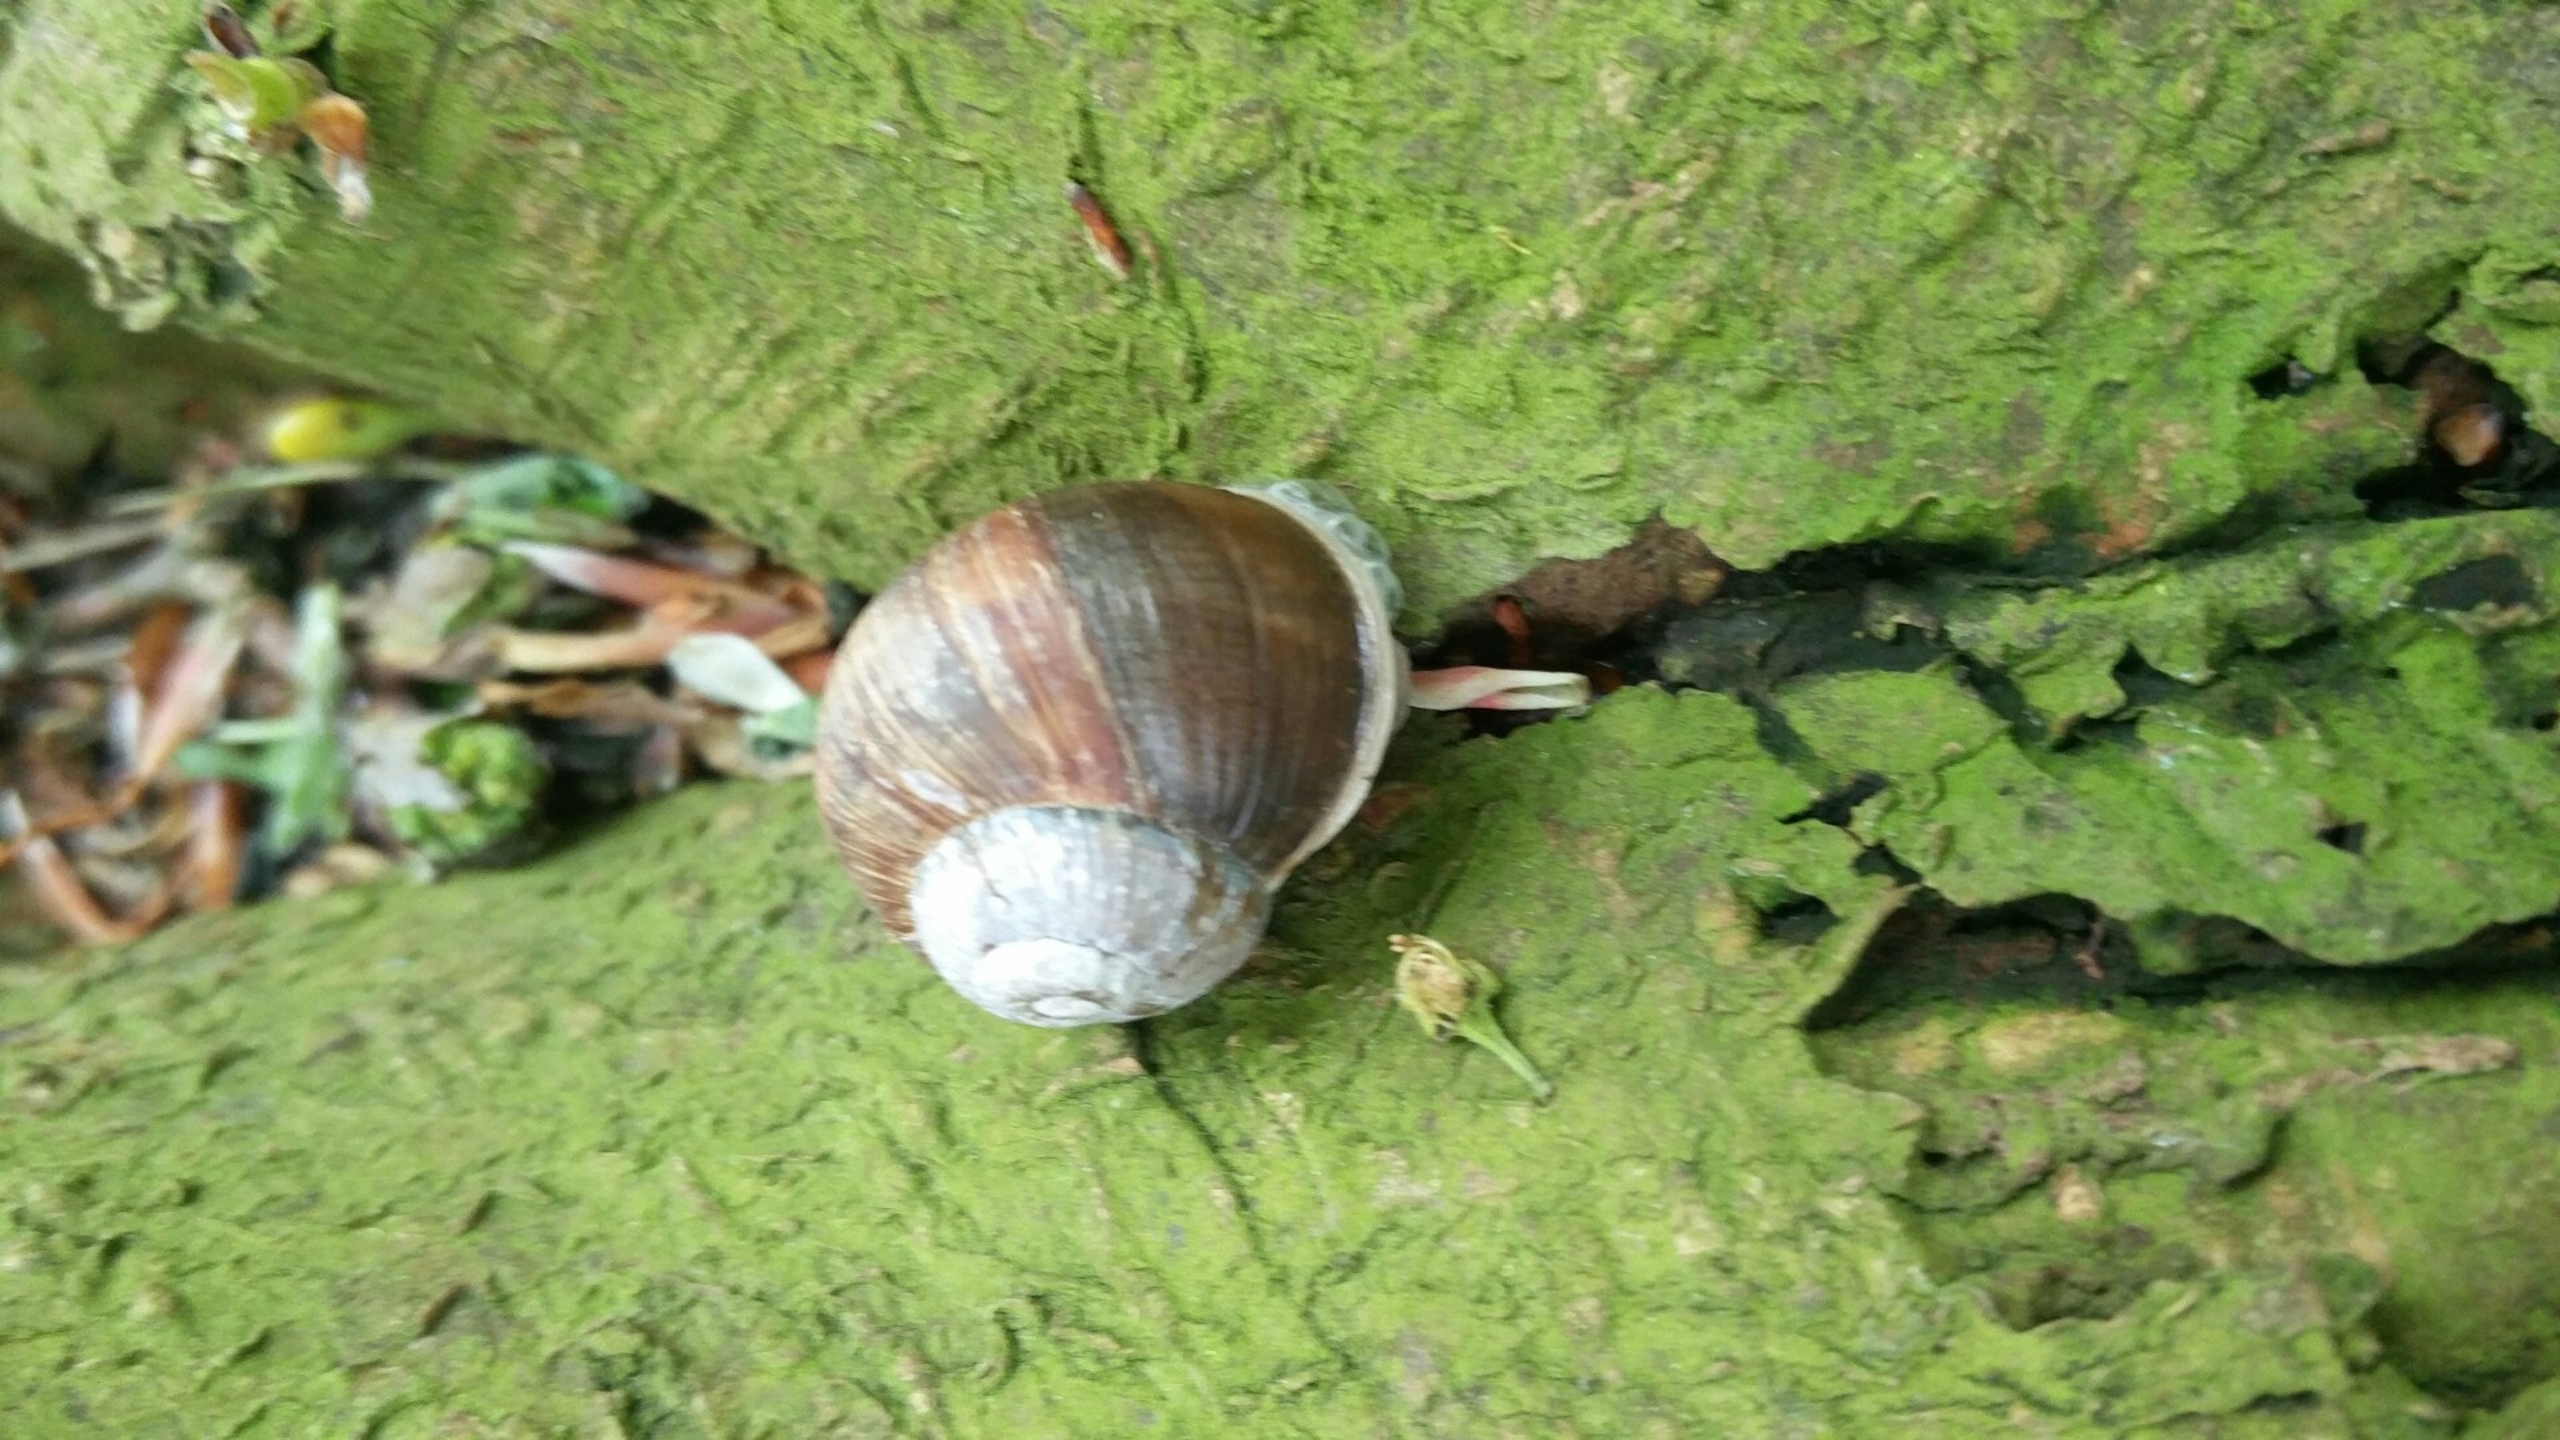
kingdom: Animalia
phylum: Mollusca
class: Gastropoda
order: Stylommatophora
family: Helicidae
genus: Helix
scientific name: Helix pomatia
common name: Vinbjergsnegl
